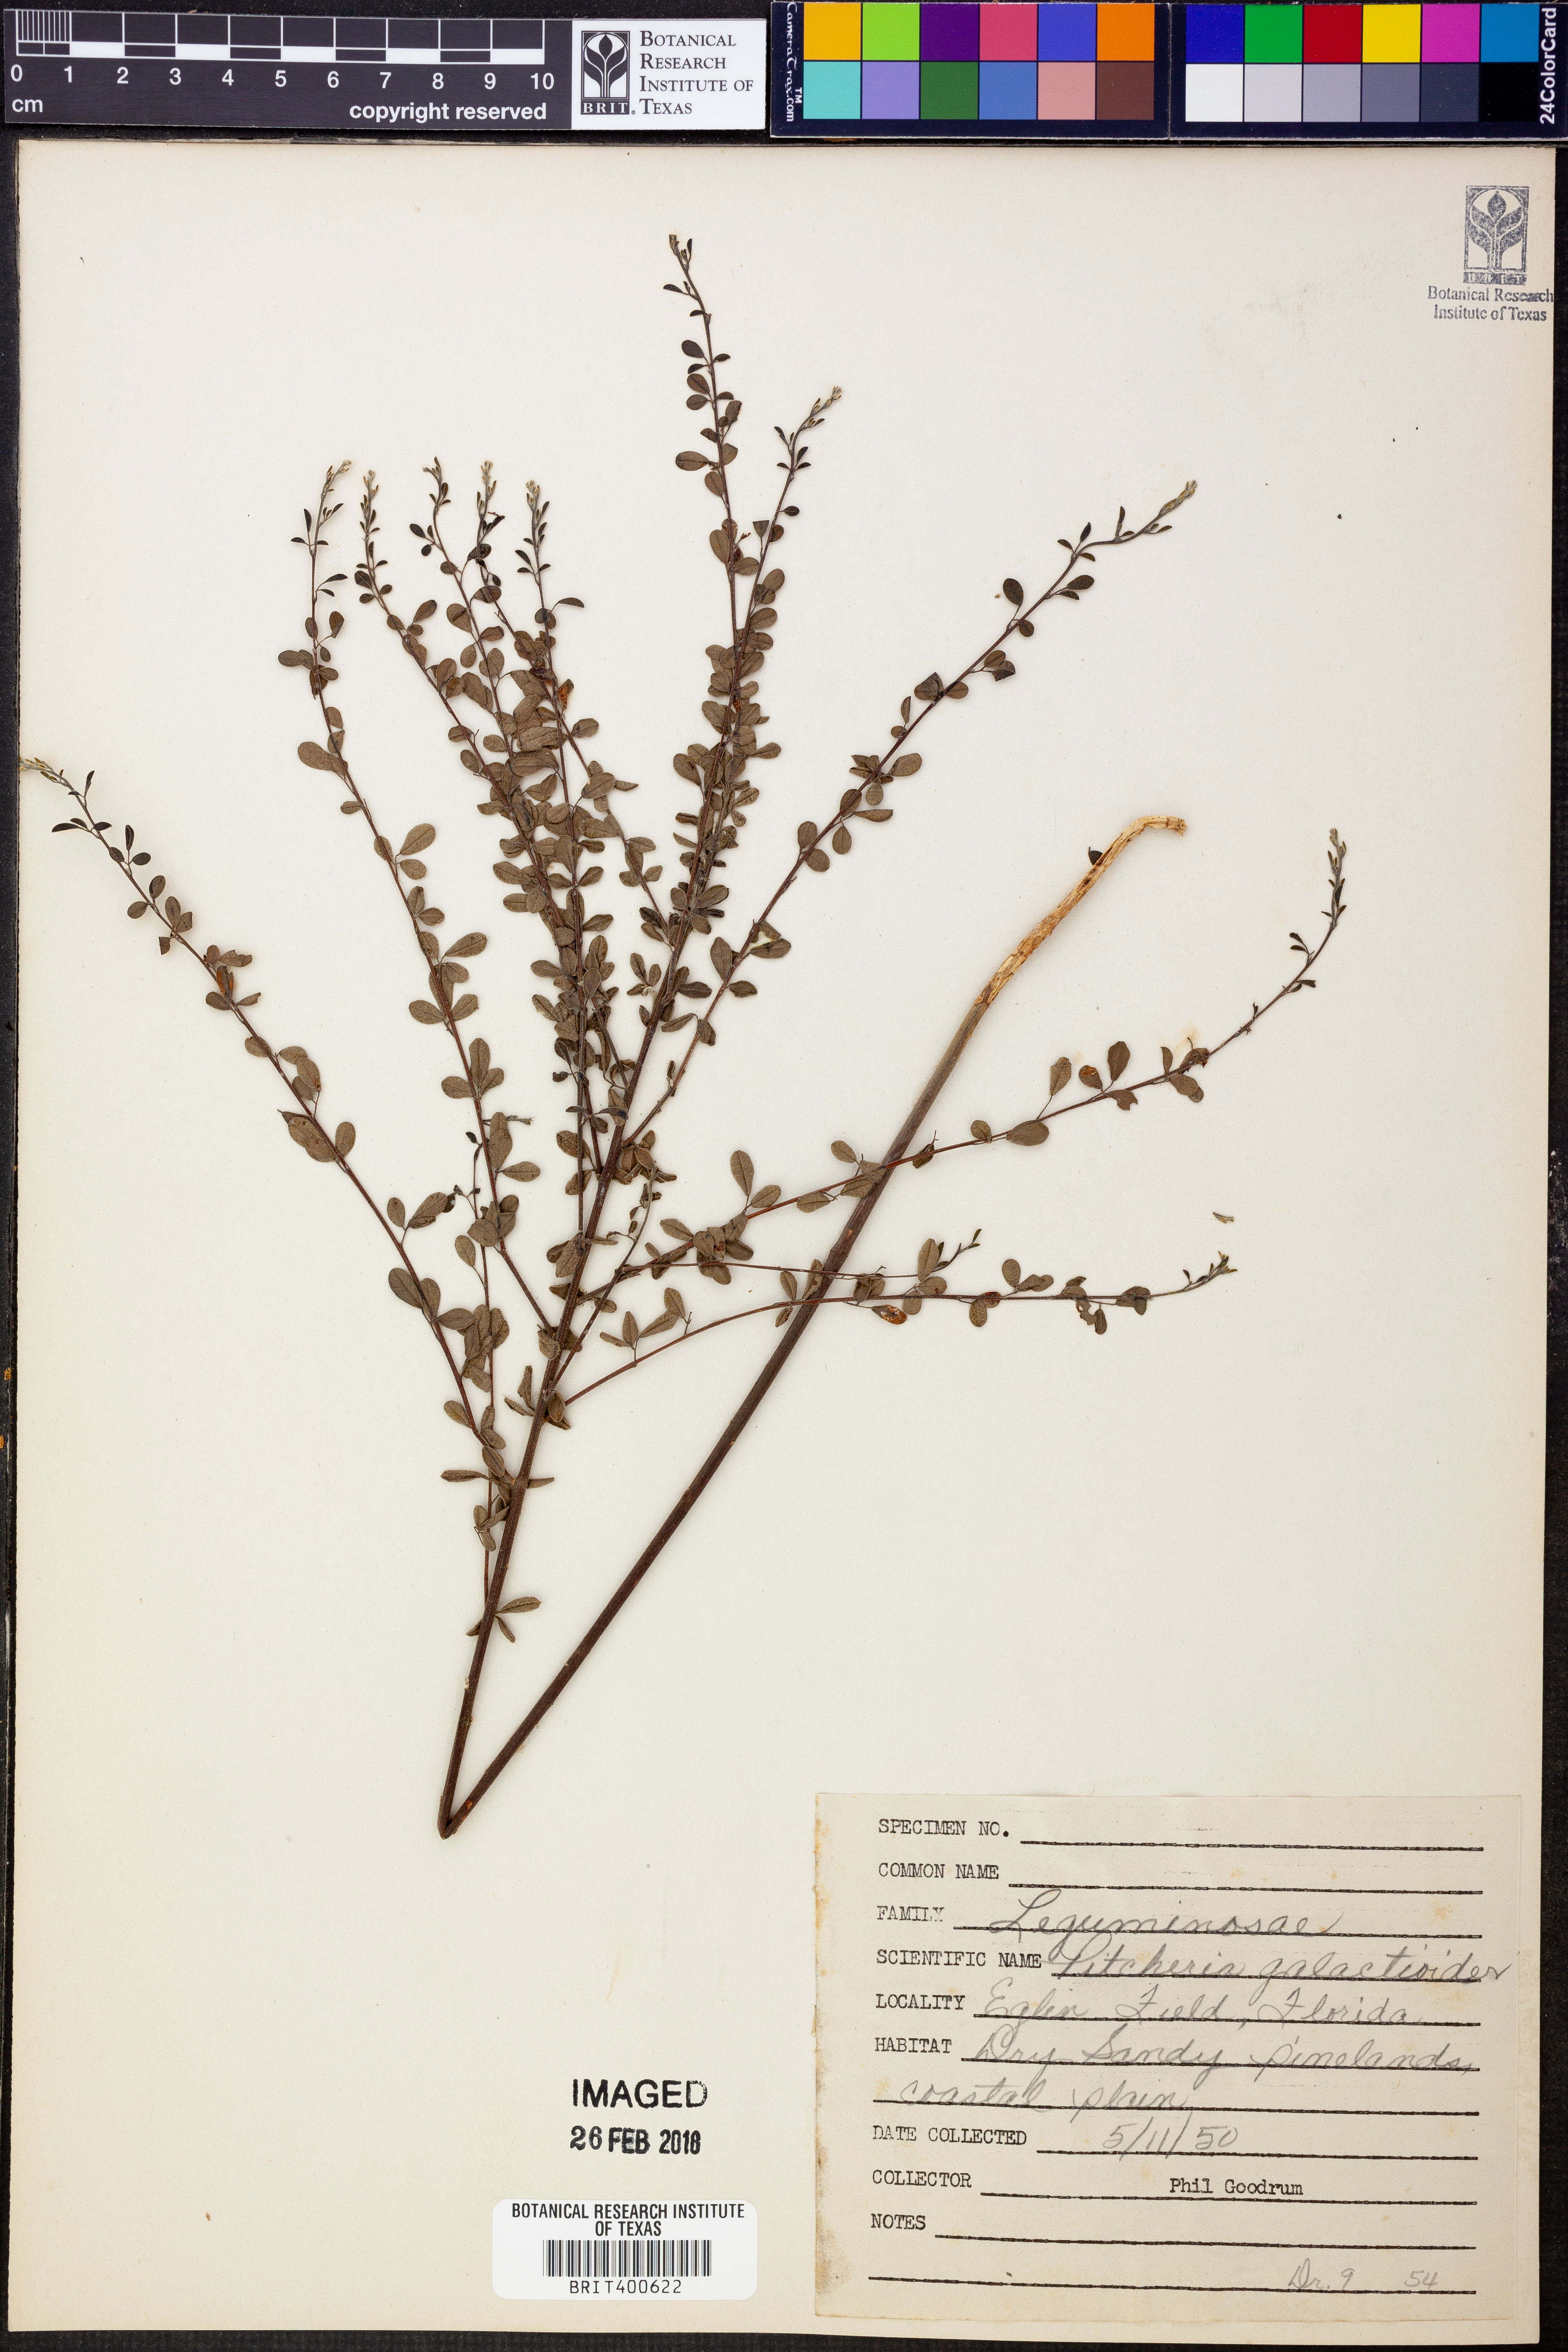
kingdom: Plantae
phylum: Tracheophyta
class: Magnoliopsida
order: Fabales
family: Fabaceae
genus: Rhynchosia
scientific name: Rhynchosia cytisoides
